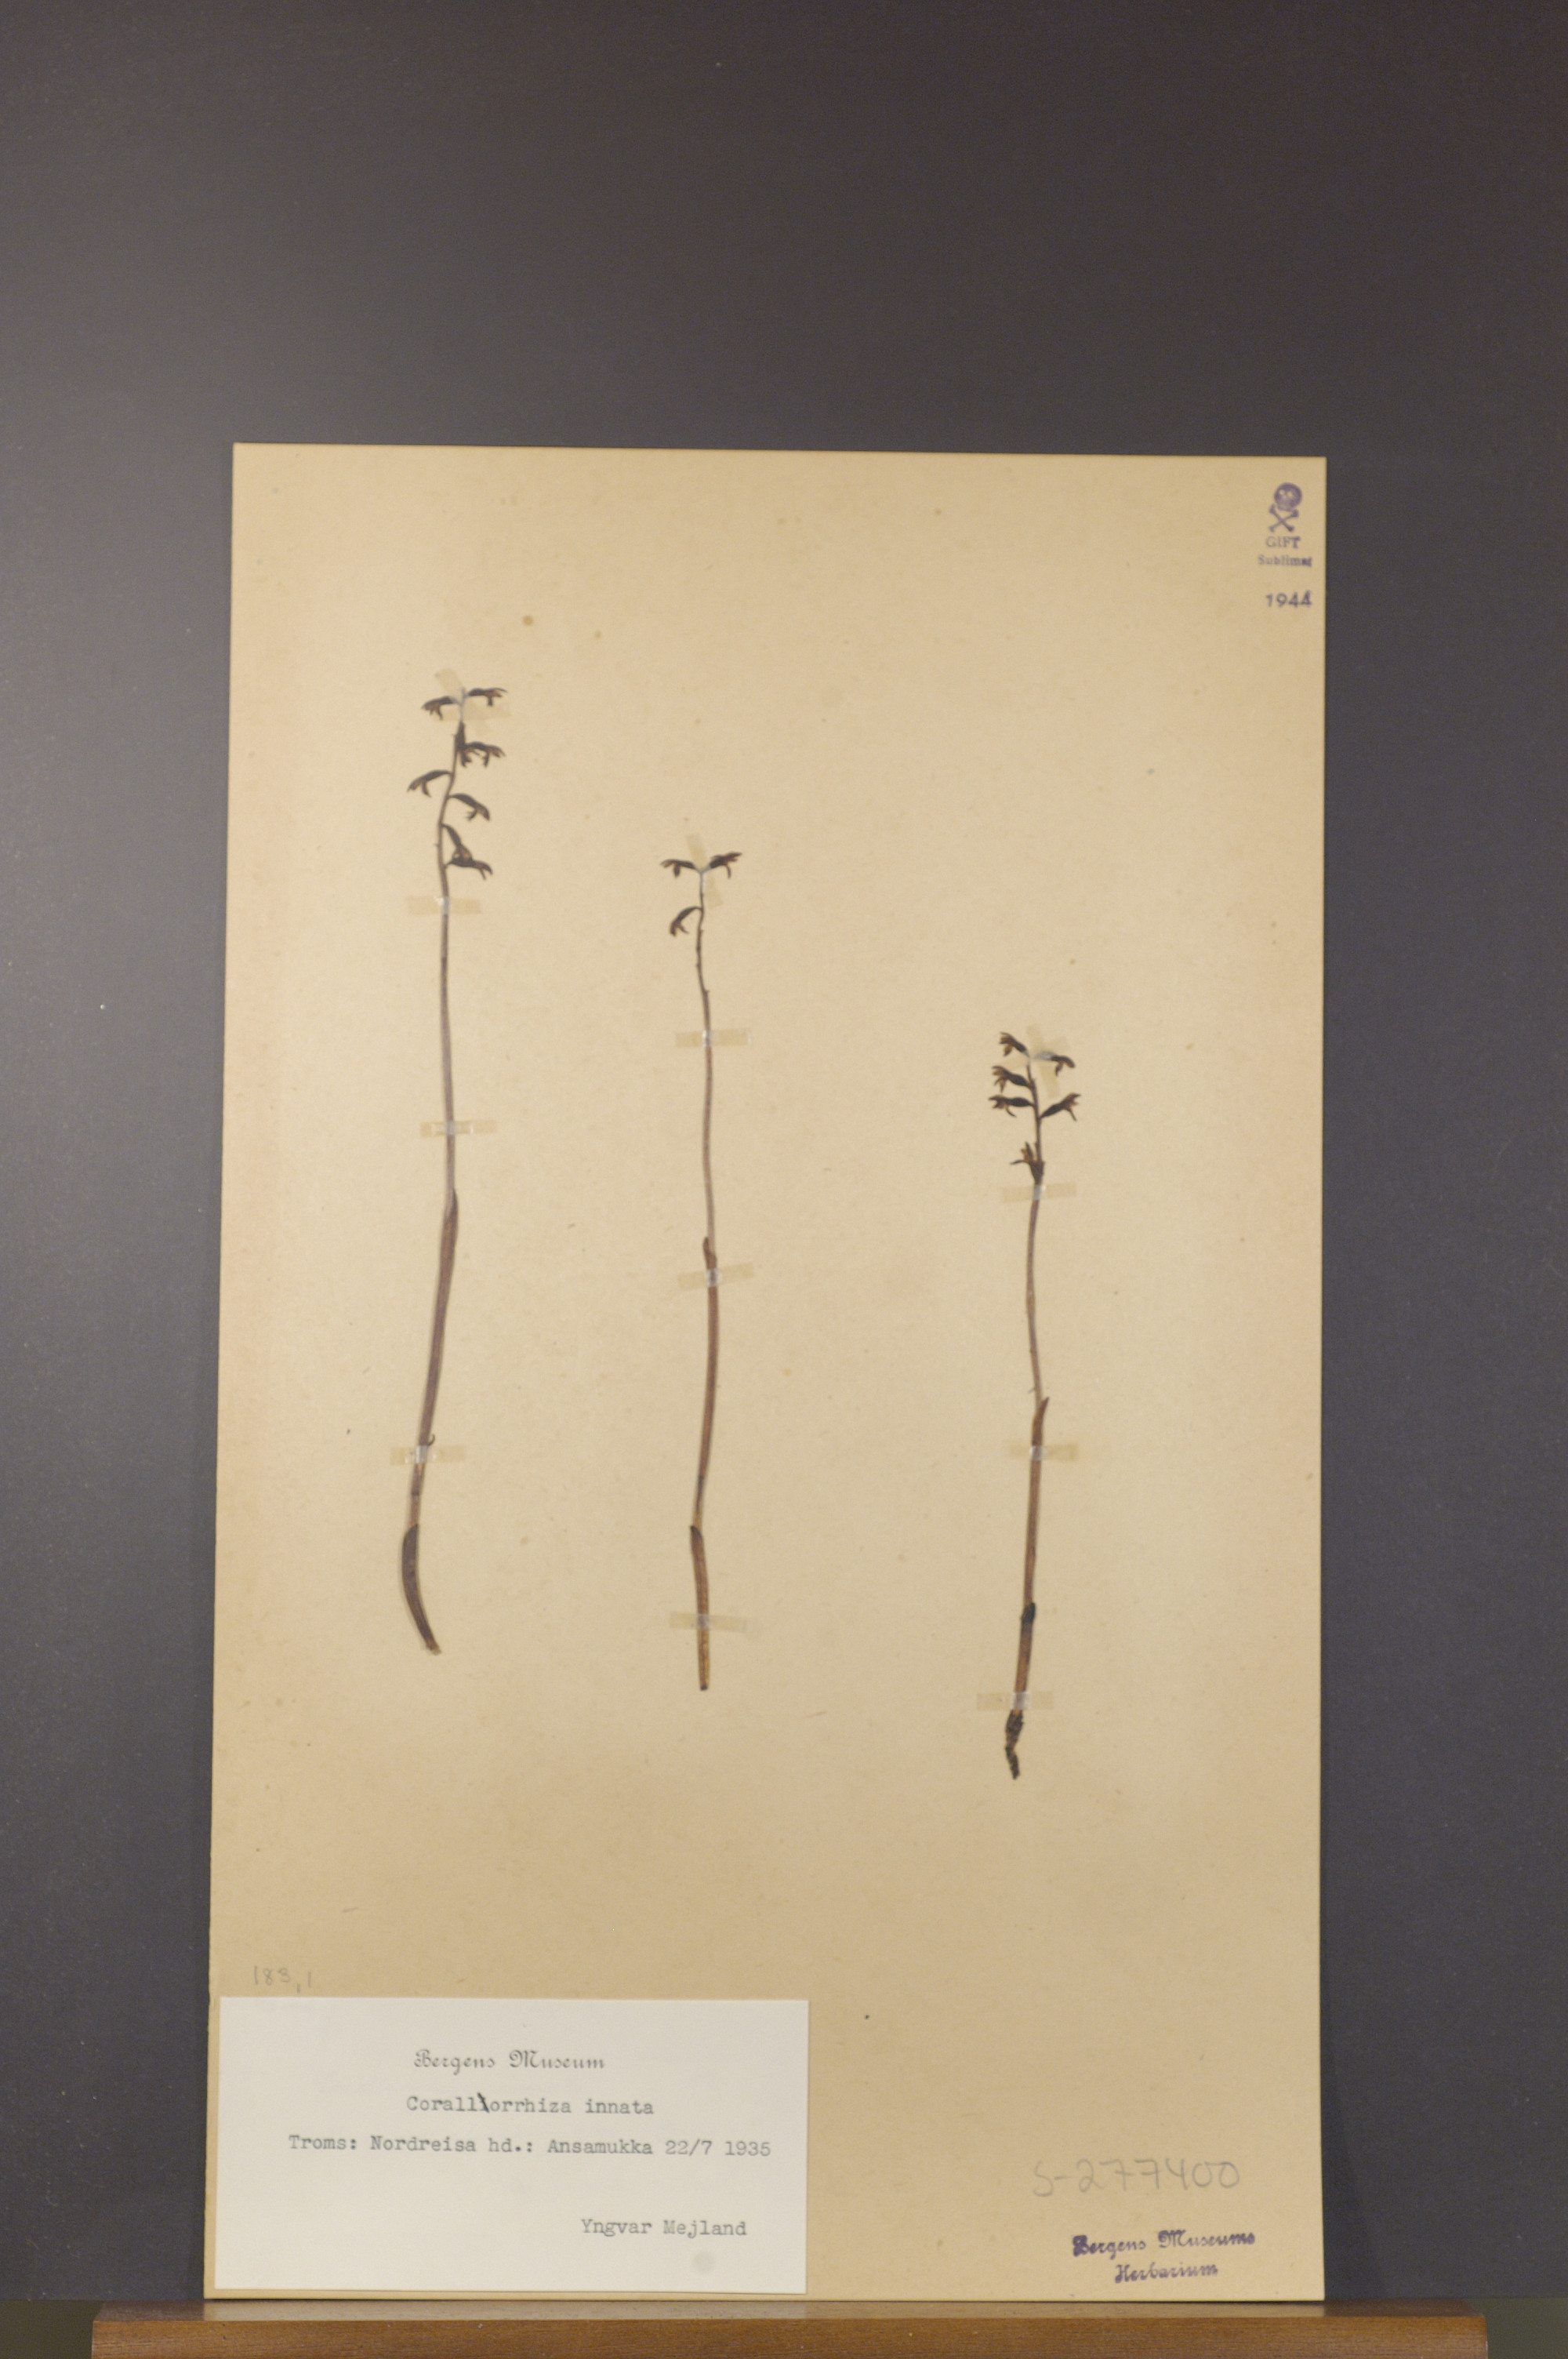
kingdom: Plantae
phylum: Tracheophyta
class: Liliopsida
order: Asparagales
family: Orchidaceae
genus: Corallorhiza
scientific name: Corallorhiza trifida
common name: Yellow coralroot
